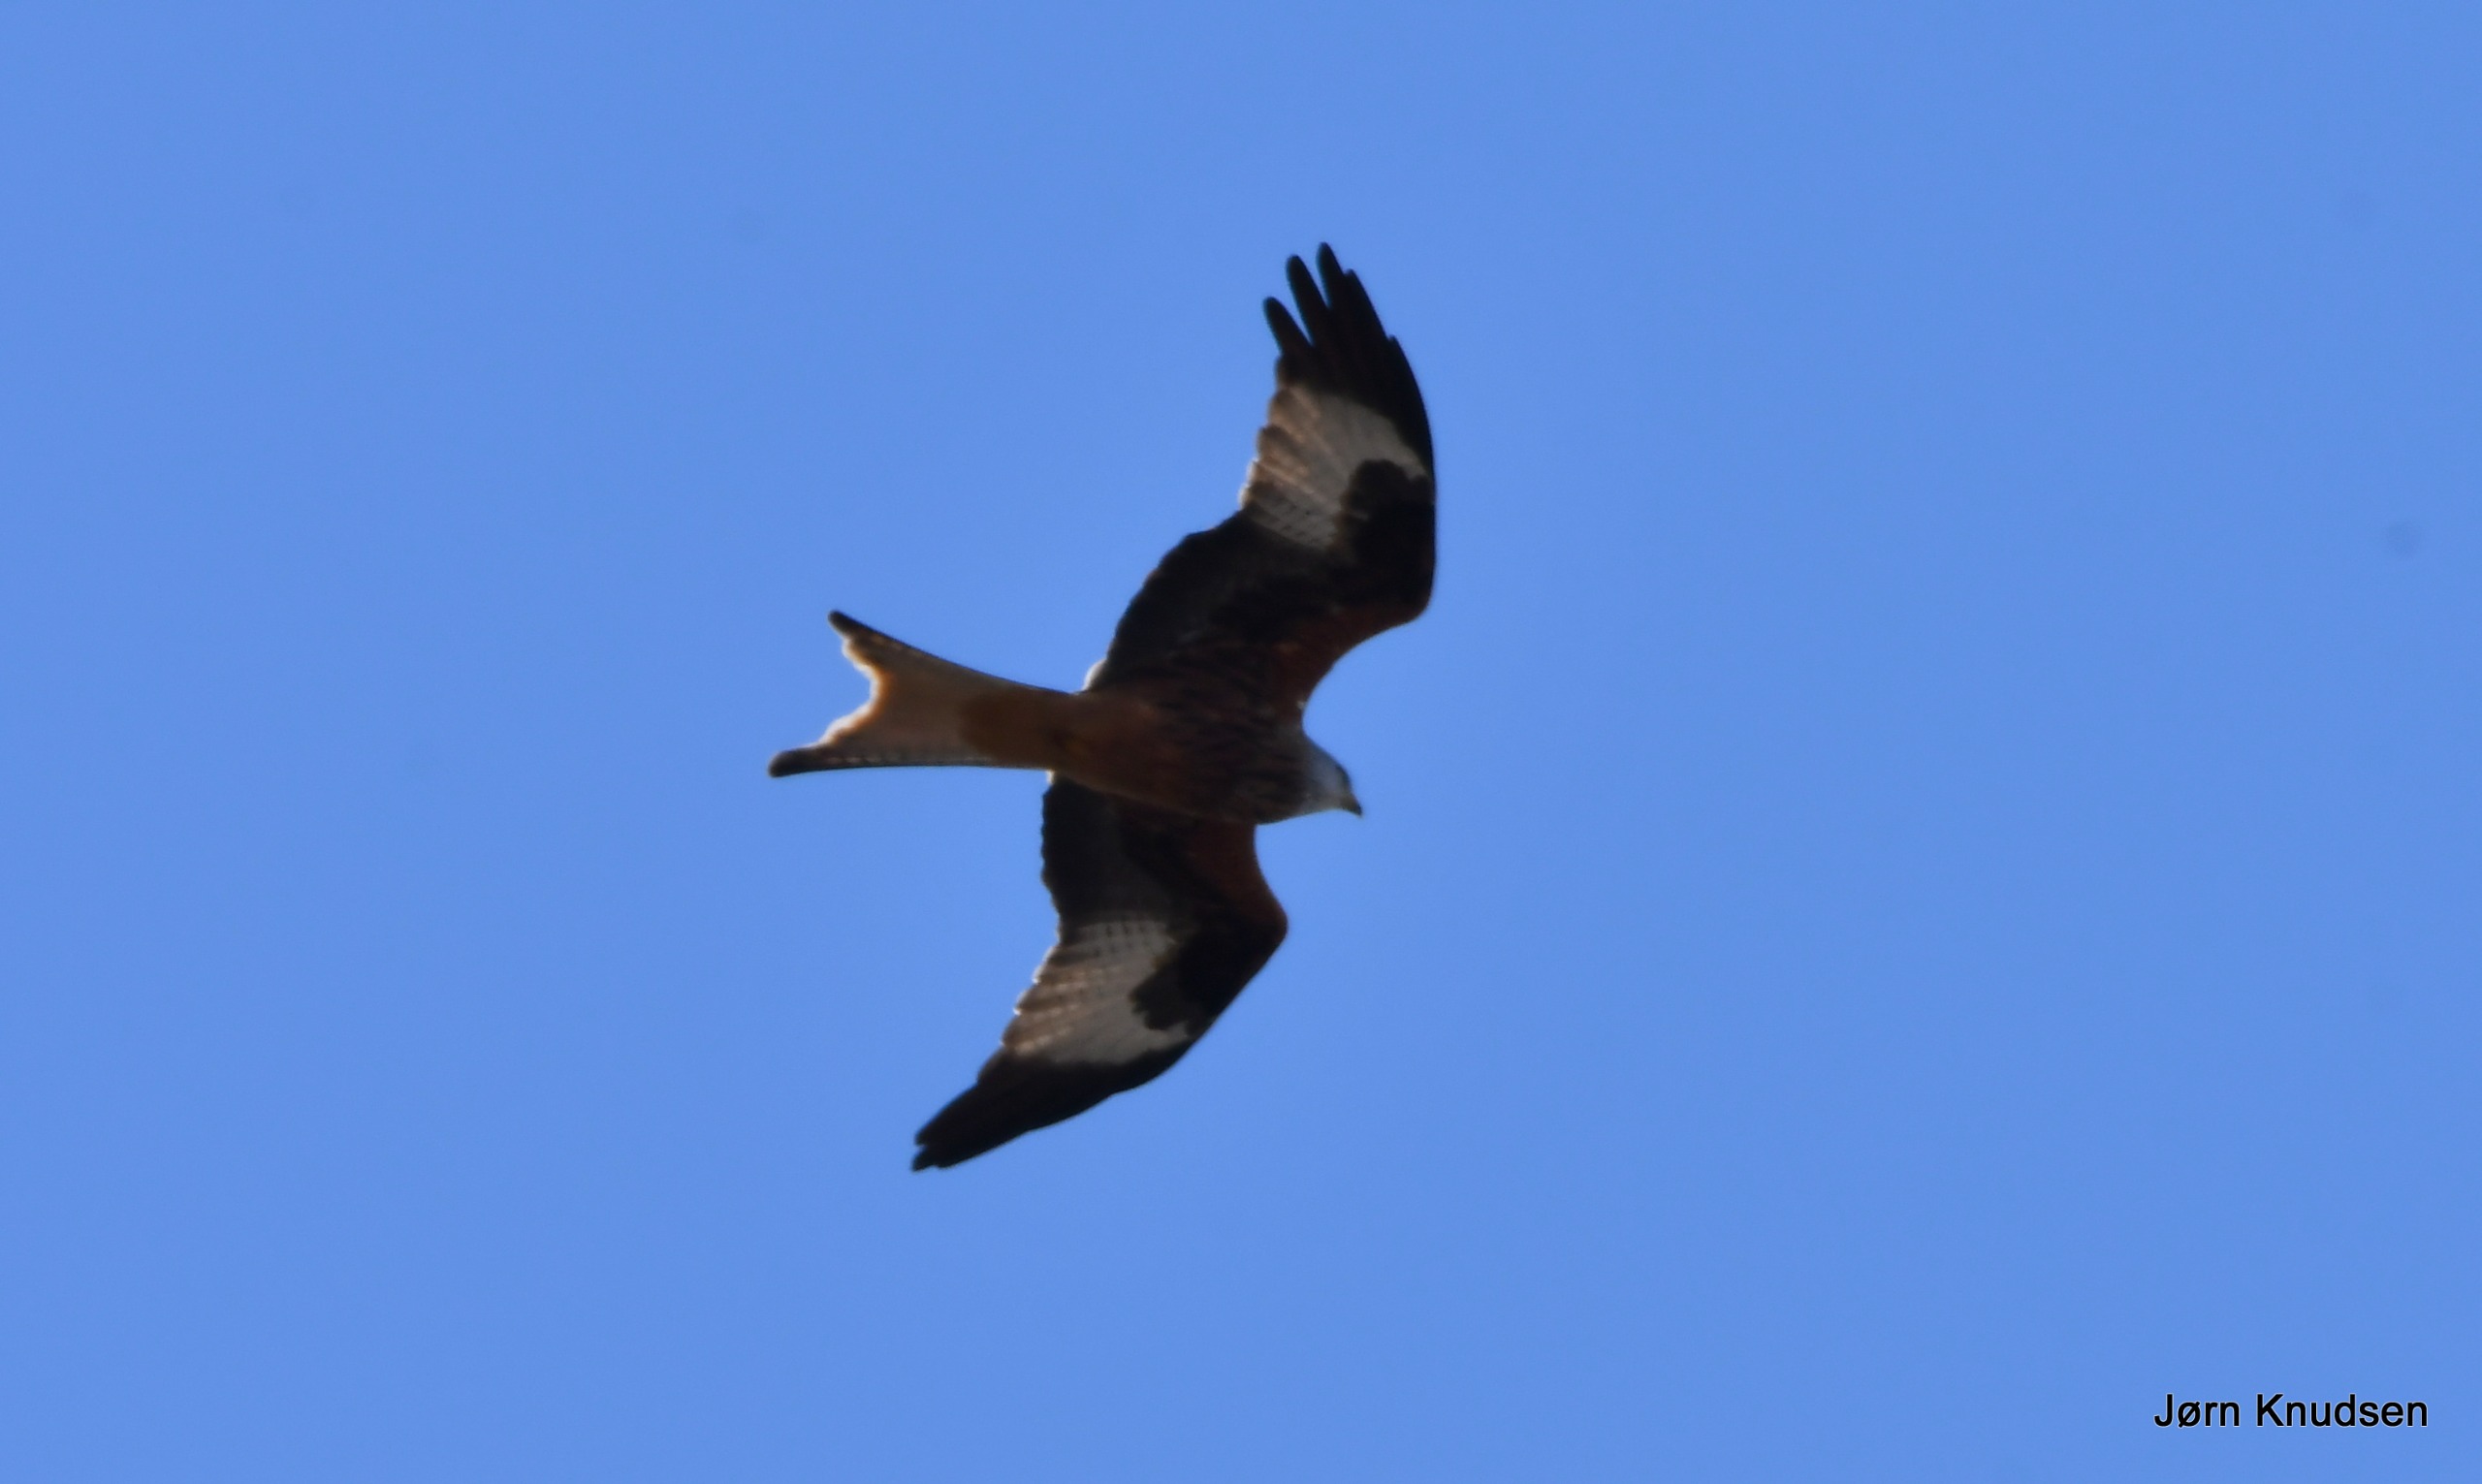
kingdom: Animalia
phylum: Chordata
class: Aves
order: Accipitriformes
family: Accipitridae
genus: Milvus
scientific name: Milvus milvus
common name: Rød glente
